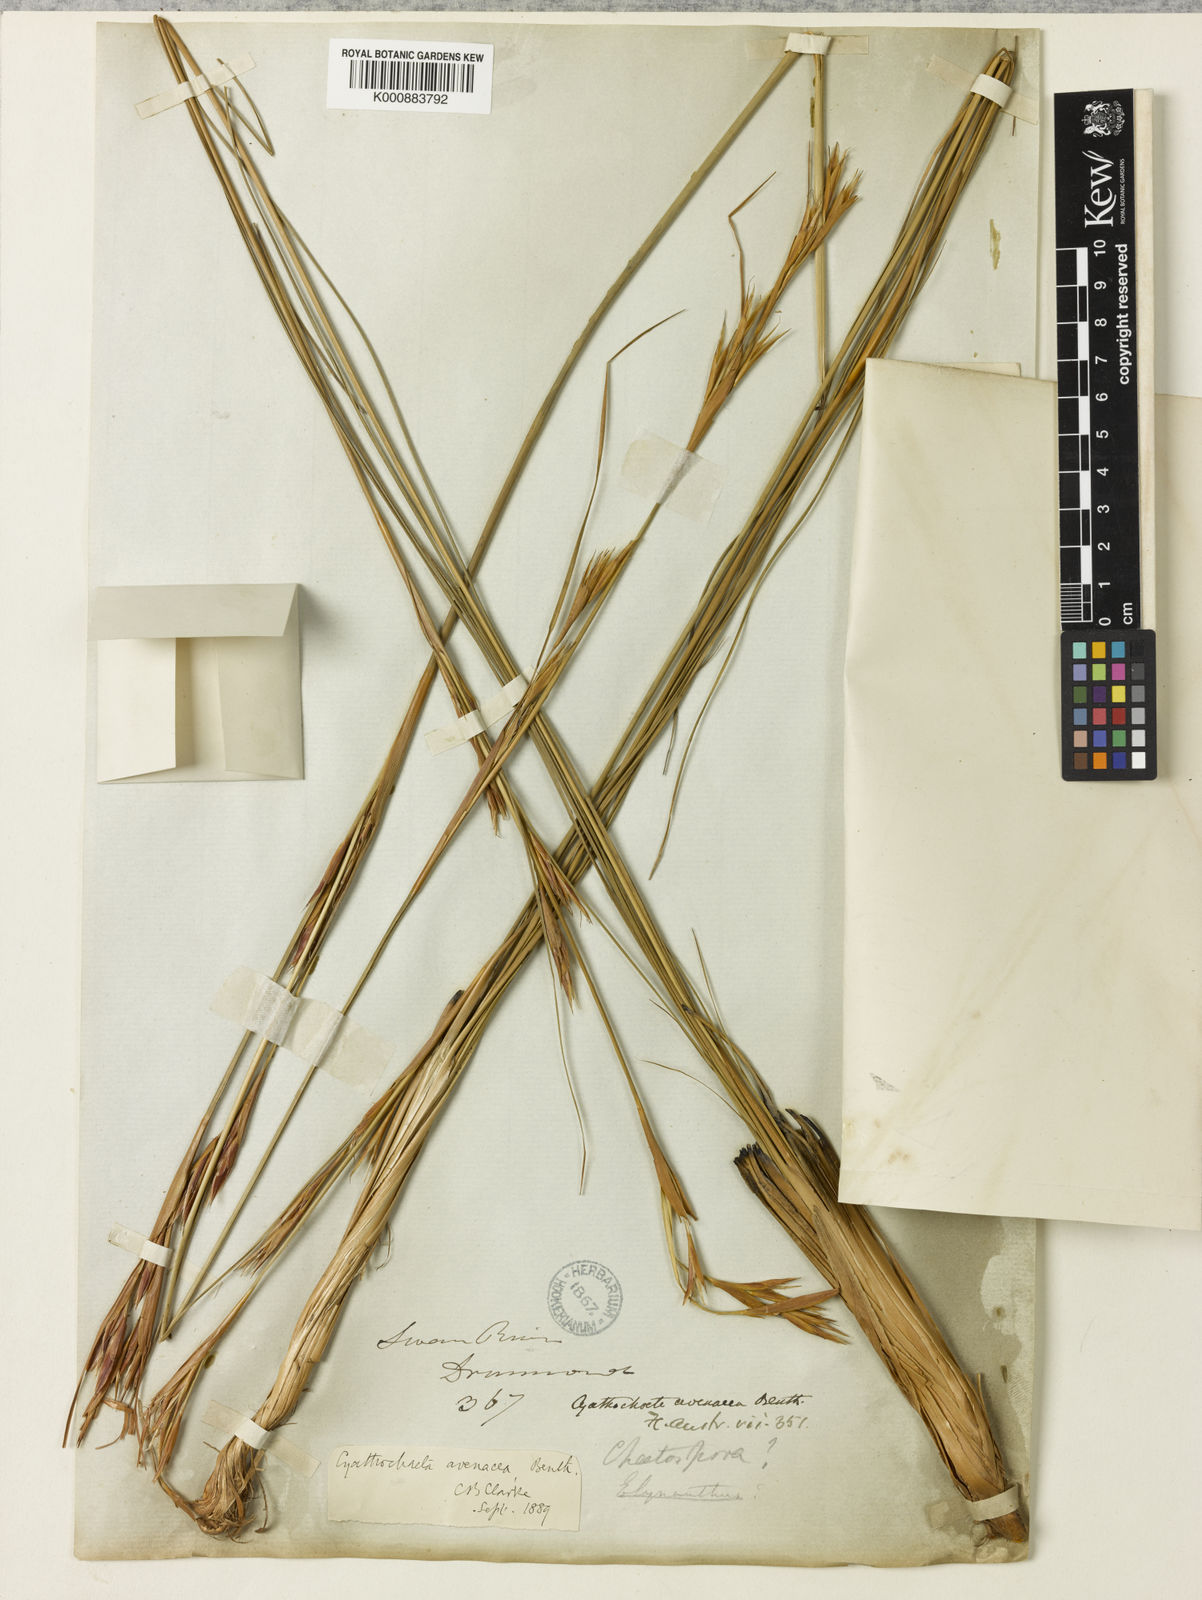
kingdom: Plantae
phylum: Tracheophyta
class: Liliopsida
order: Poales
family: Cyperaceae
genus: Cyathochaeta
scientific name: Cyathochaeta avenacea
